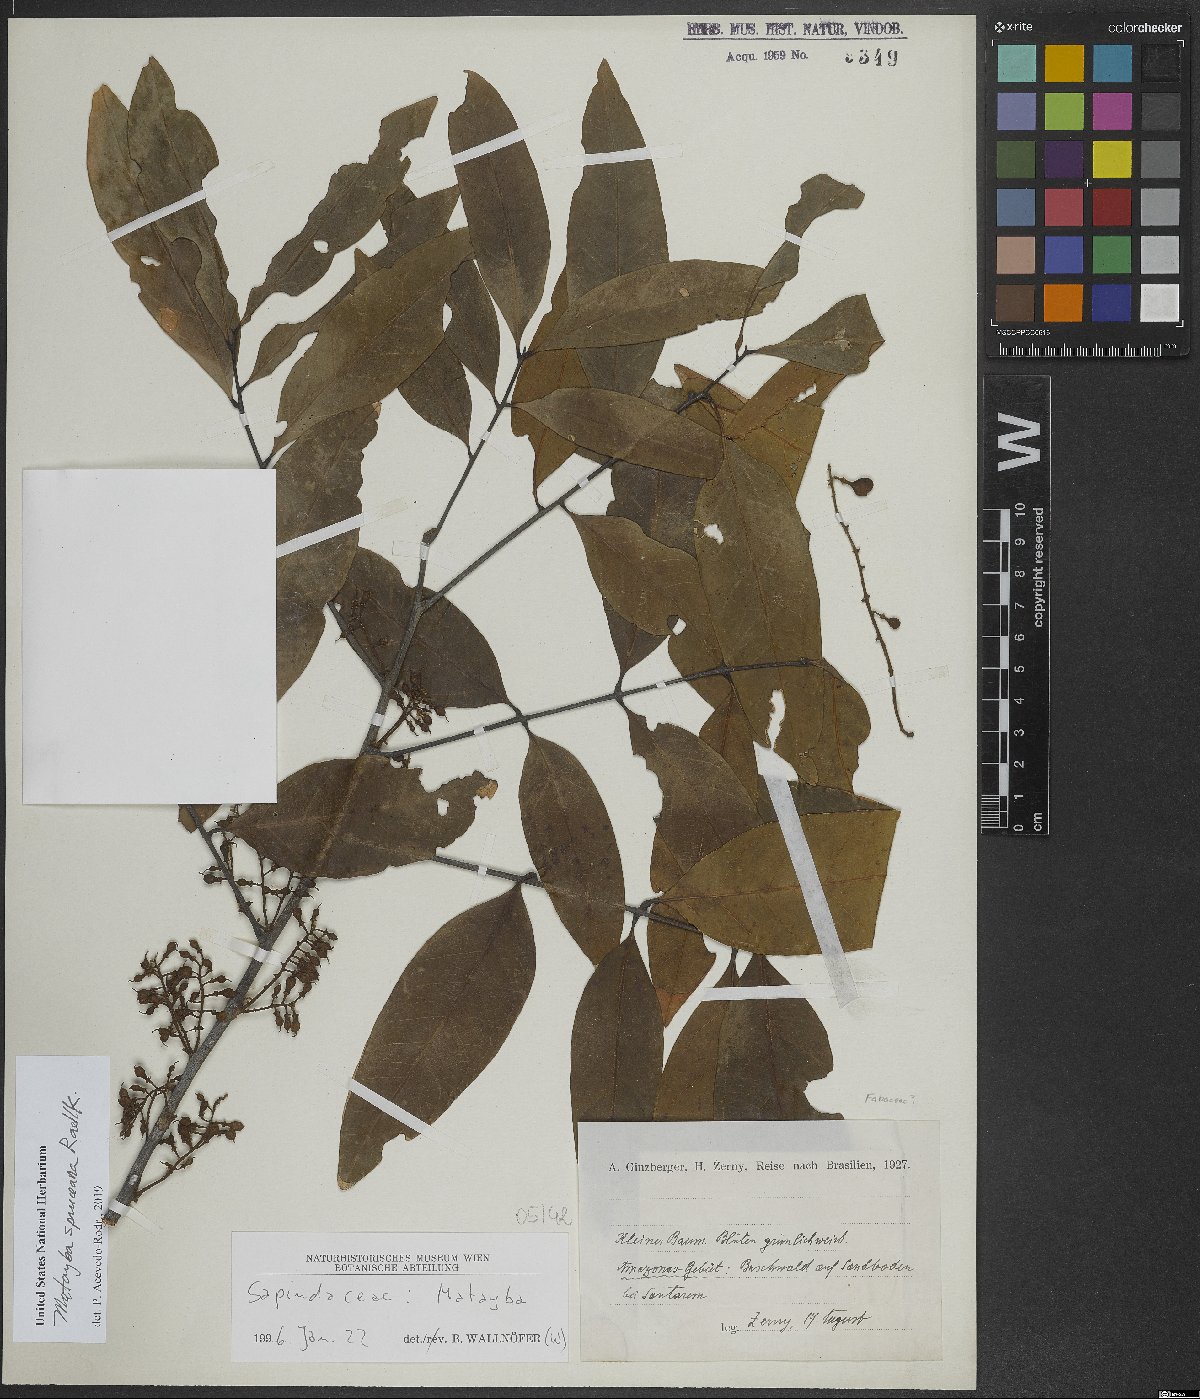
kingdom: Plantae
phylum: Tracheophyta
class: Magnoliopsida
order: Sapindales
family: Sapindaceae
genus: Matayba
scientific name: Matayba spruceana
